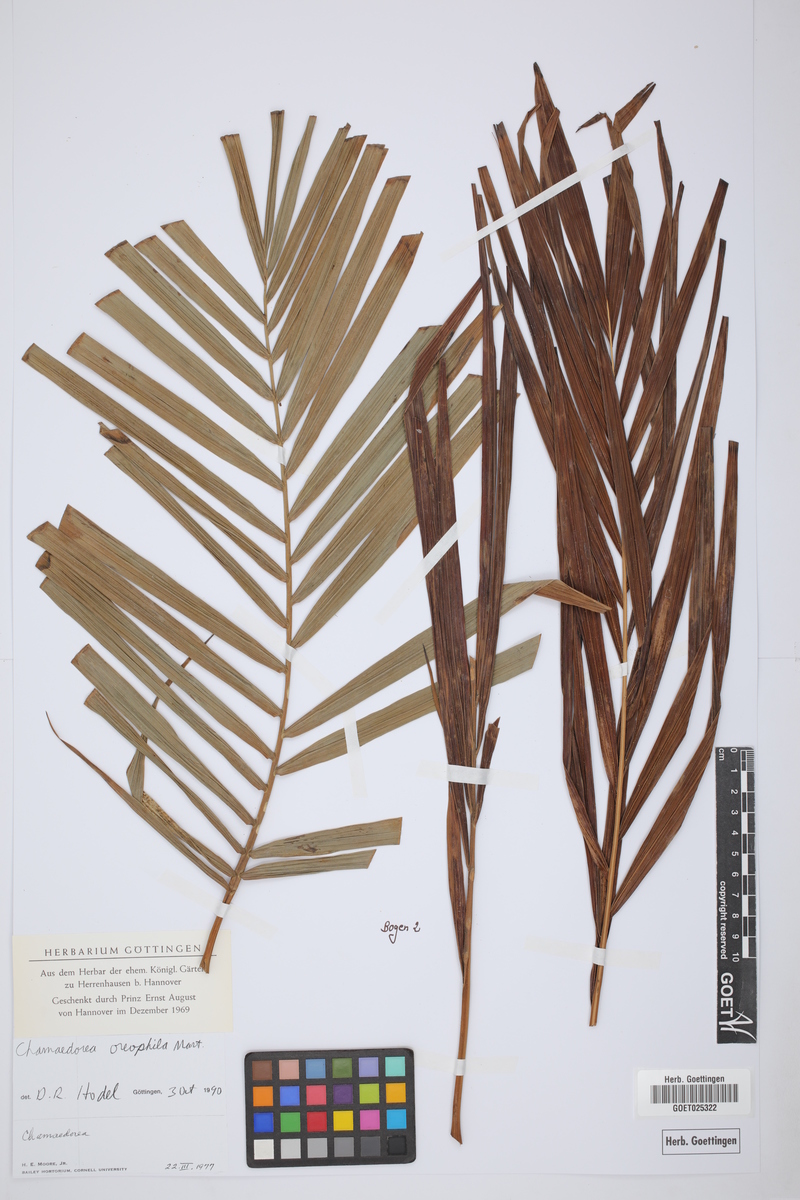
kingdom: Plantae
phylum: Tracheophyta
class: Liliopsida
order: Arecales
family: Arecaceae
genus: Chamaedorea
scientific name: Chamaedorea oreophila
